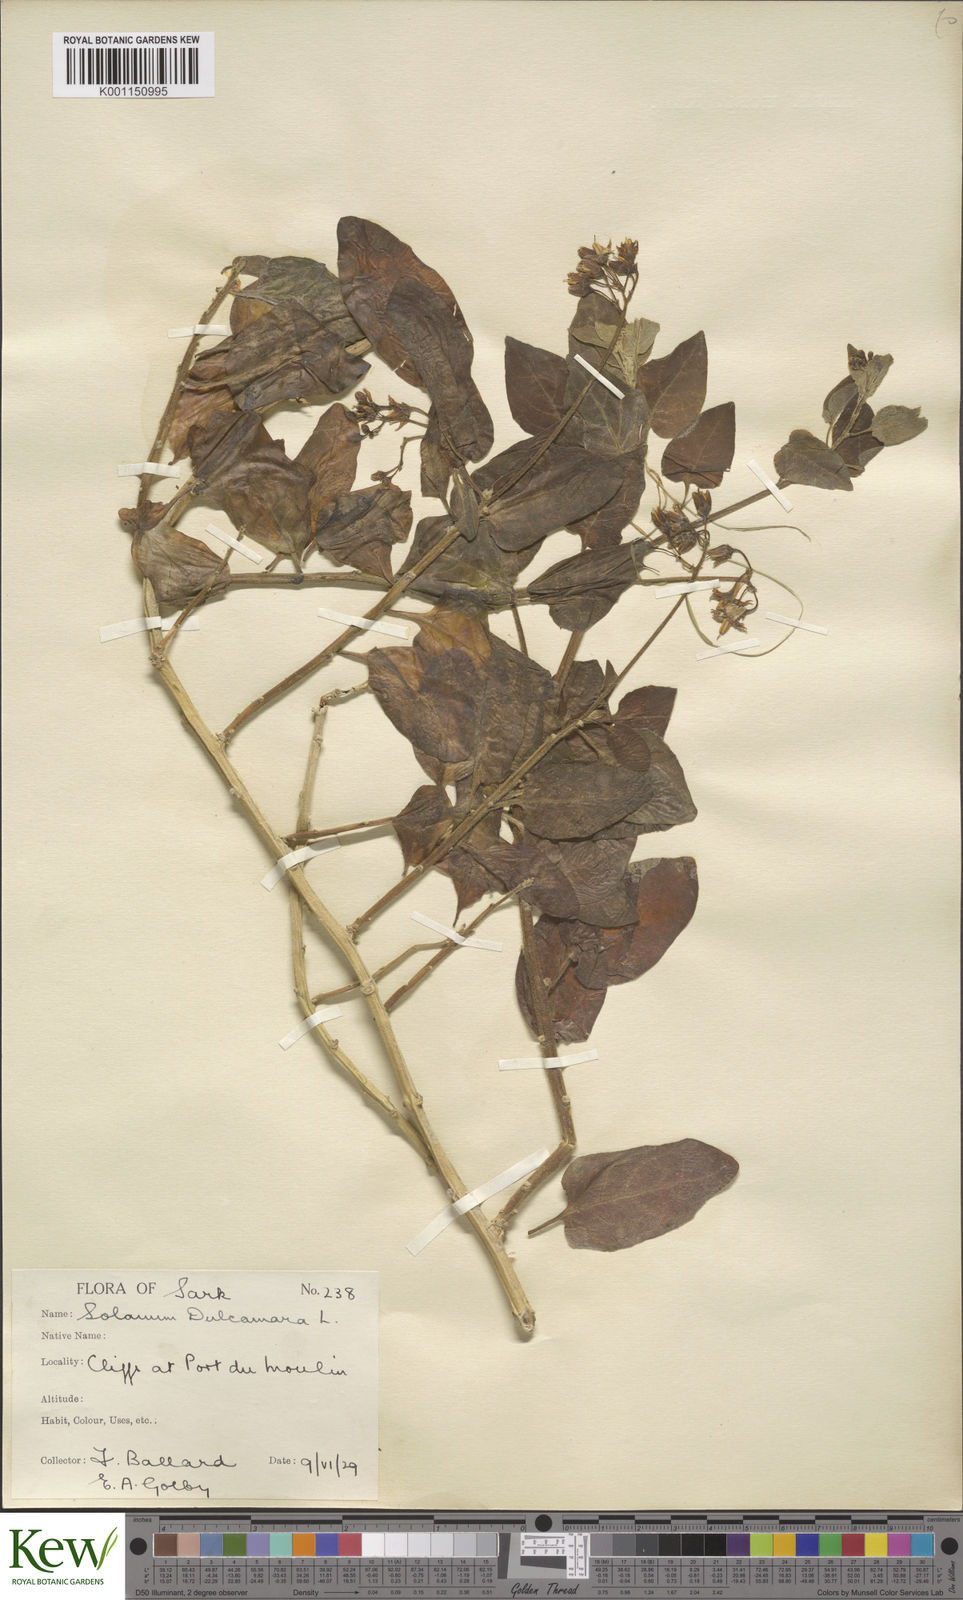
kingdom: Plantae
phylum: Tracheophyta
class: Magnoliopsida
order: Solanales
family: Solanaceae
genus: Solanum
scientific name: Solanum dulcamara
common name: Climbing nightshade
